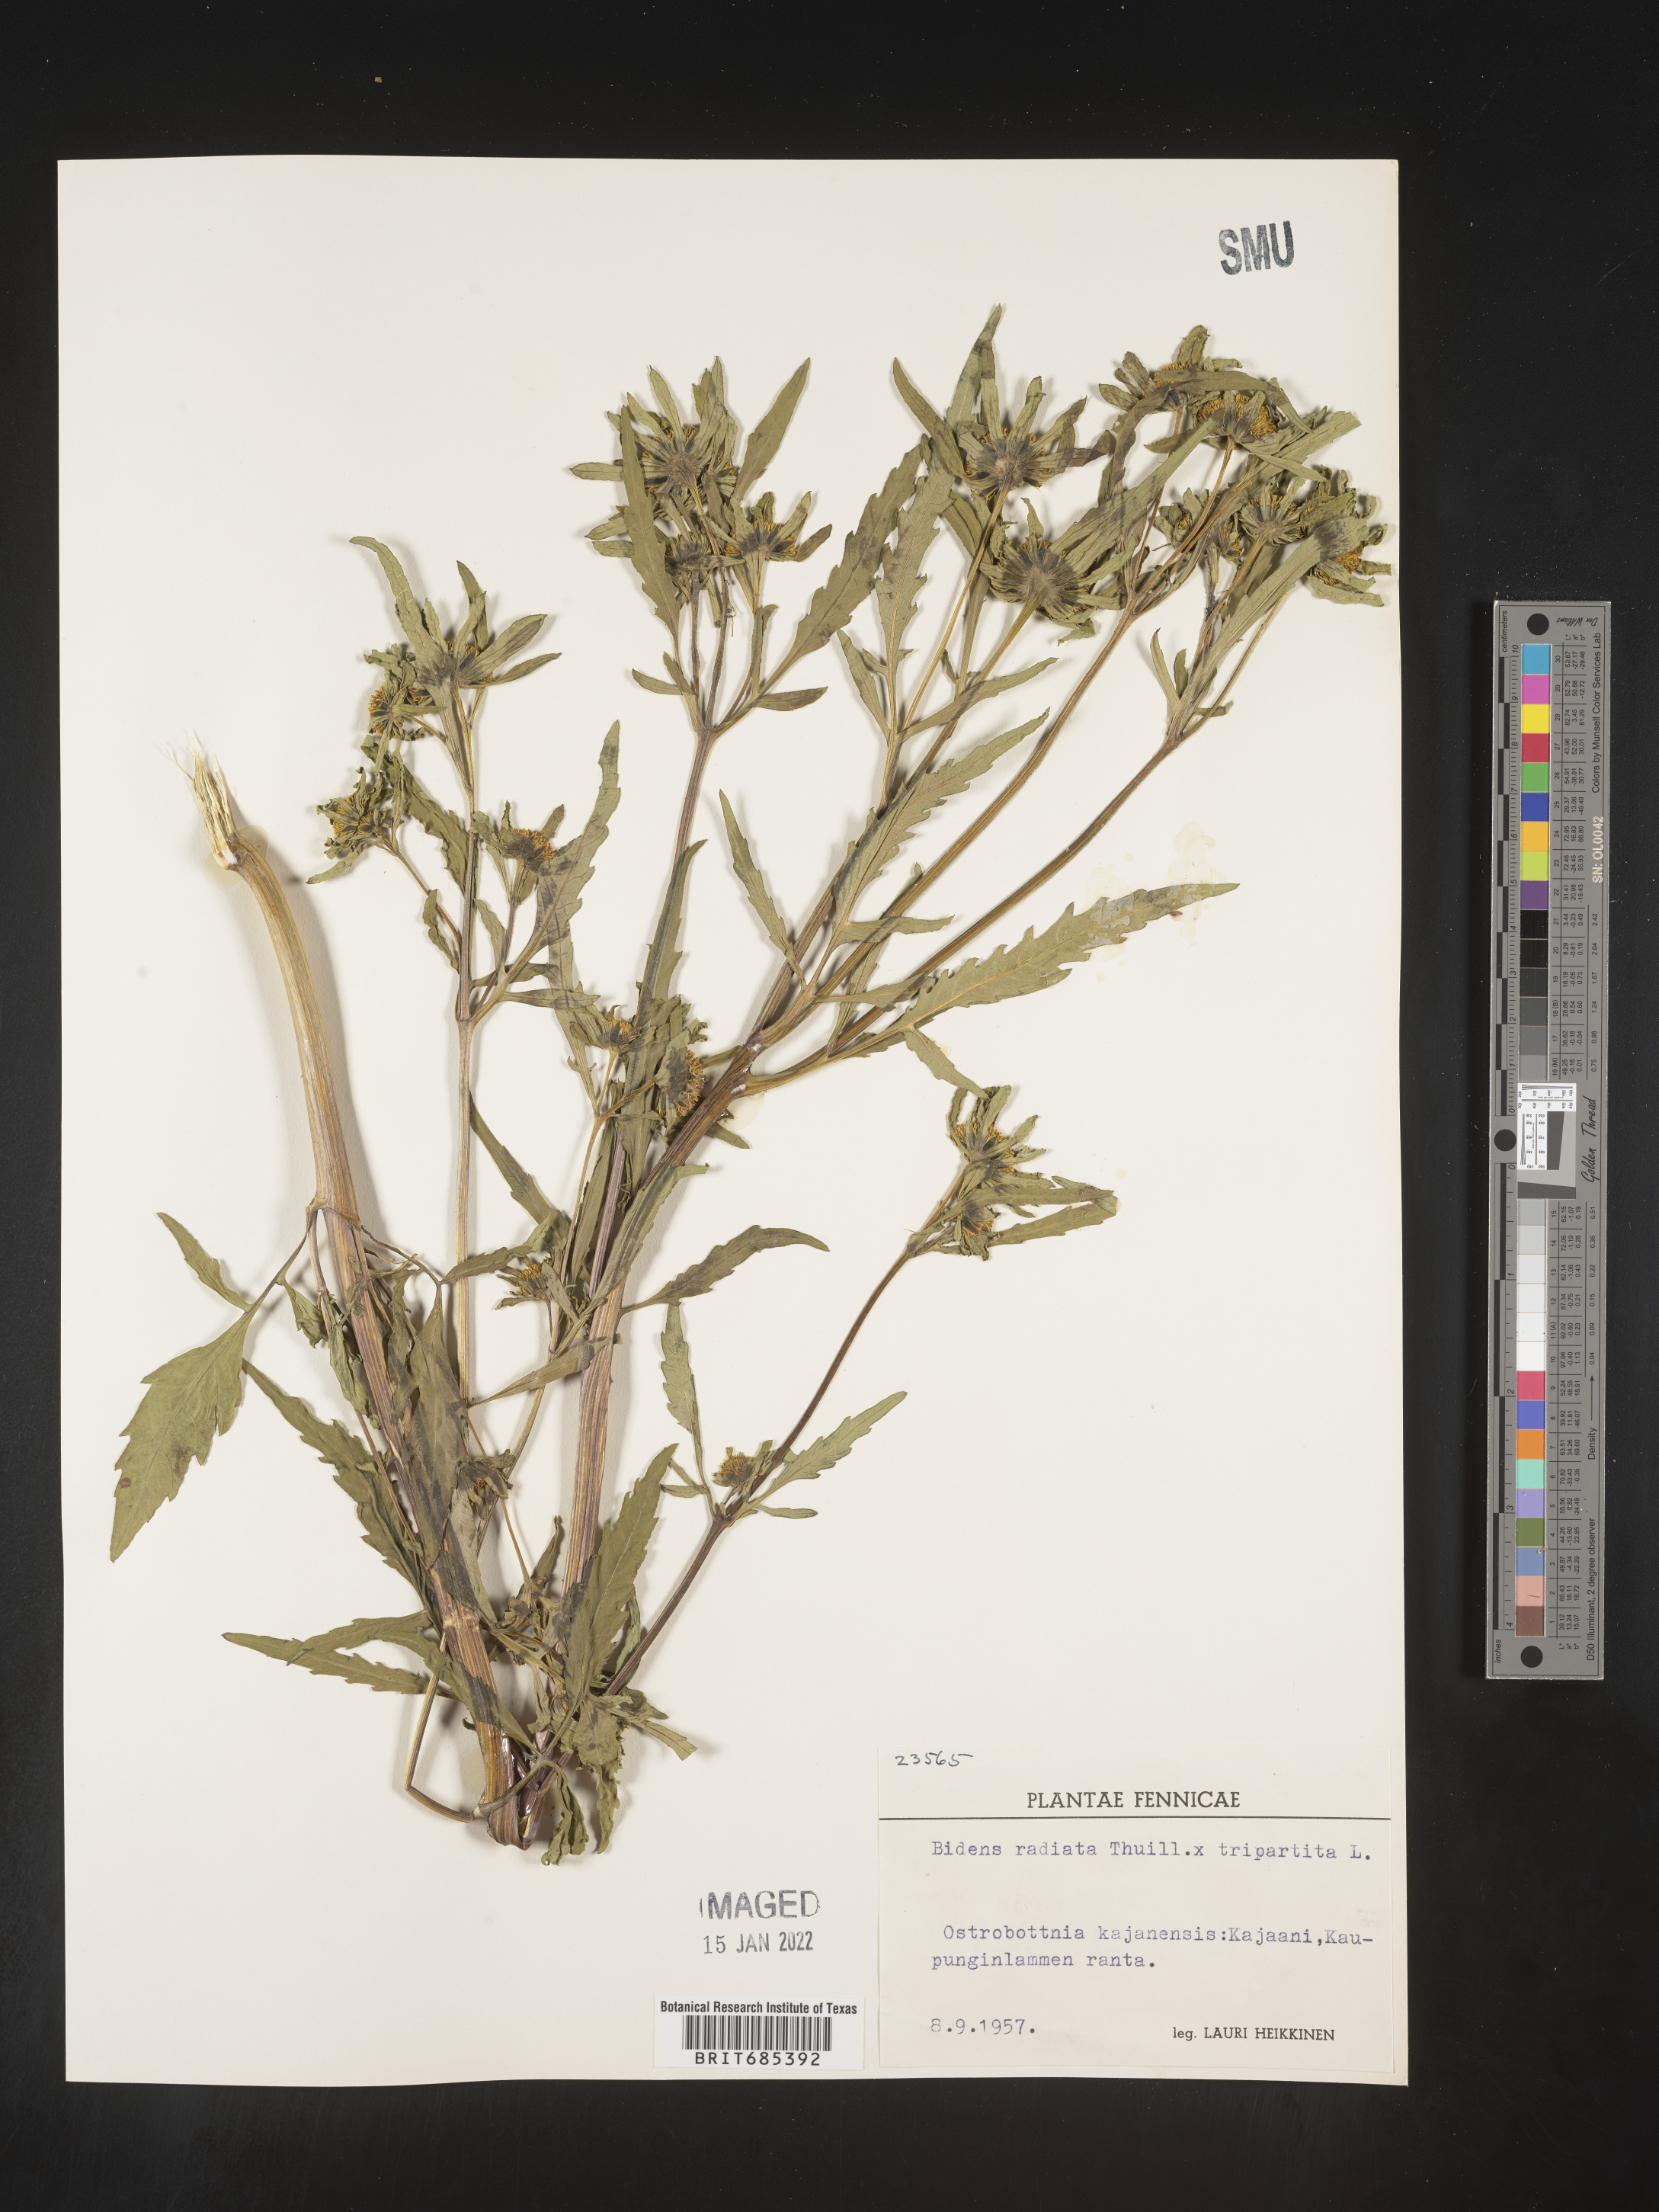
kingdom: Plantae
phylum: Tracheophyta
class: Magnoliopsida
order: Asterales
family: Asteraceae
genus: Bidens
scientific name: Bidens
